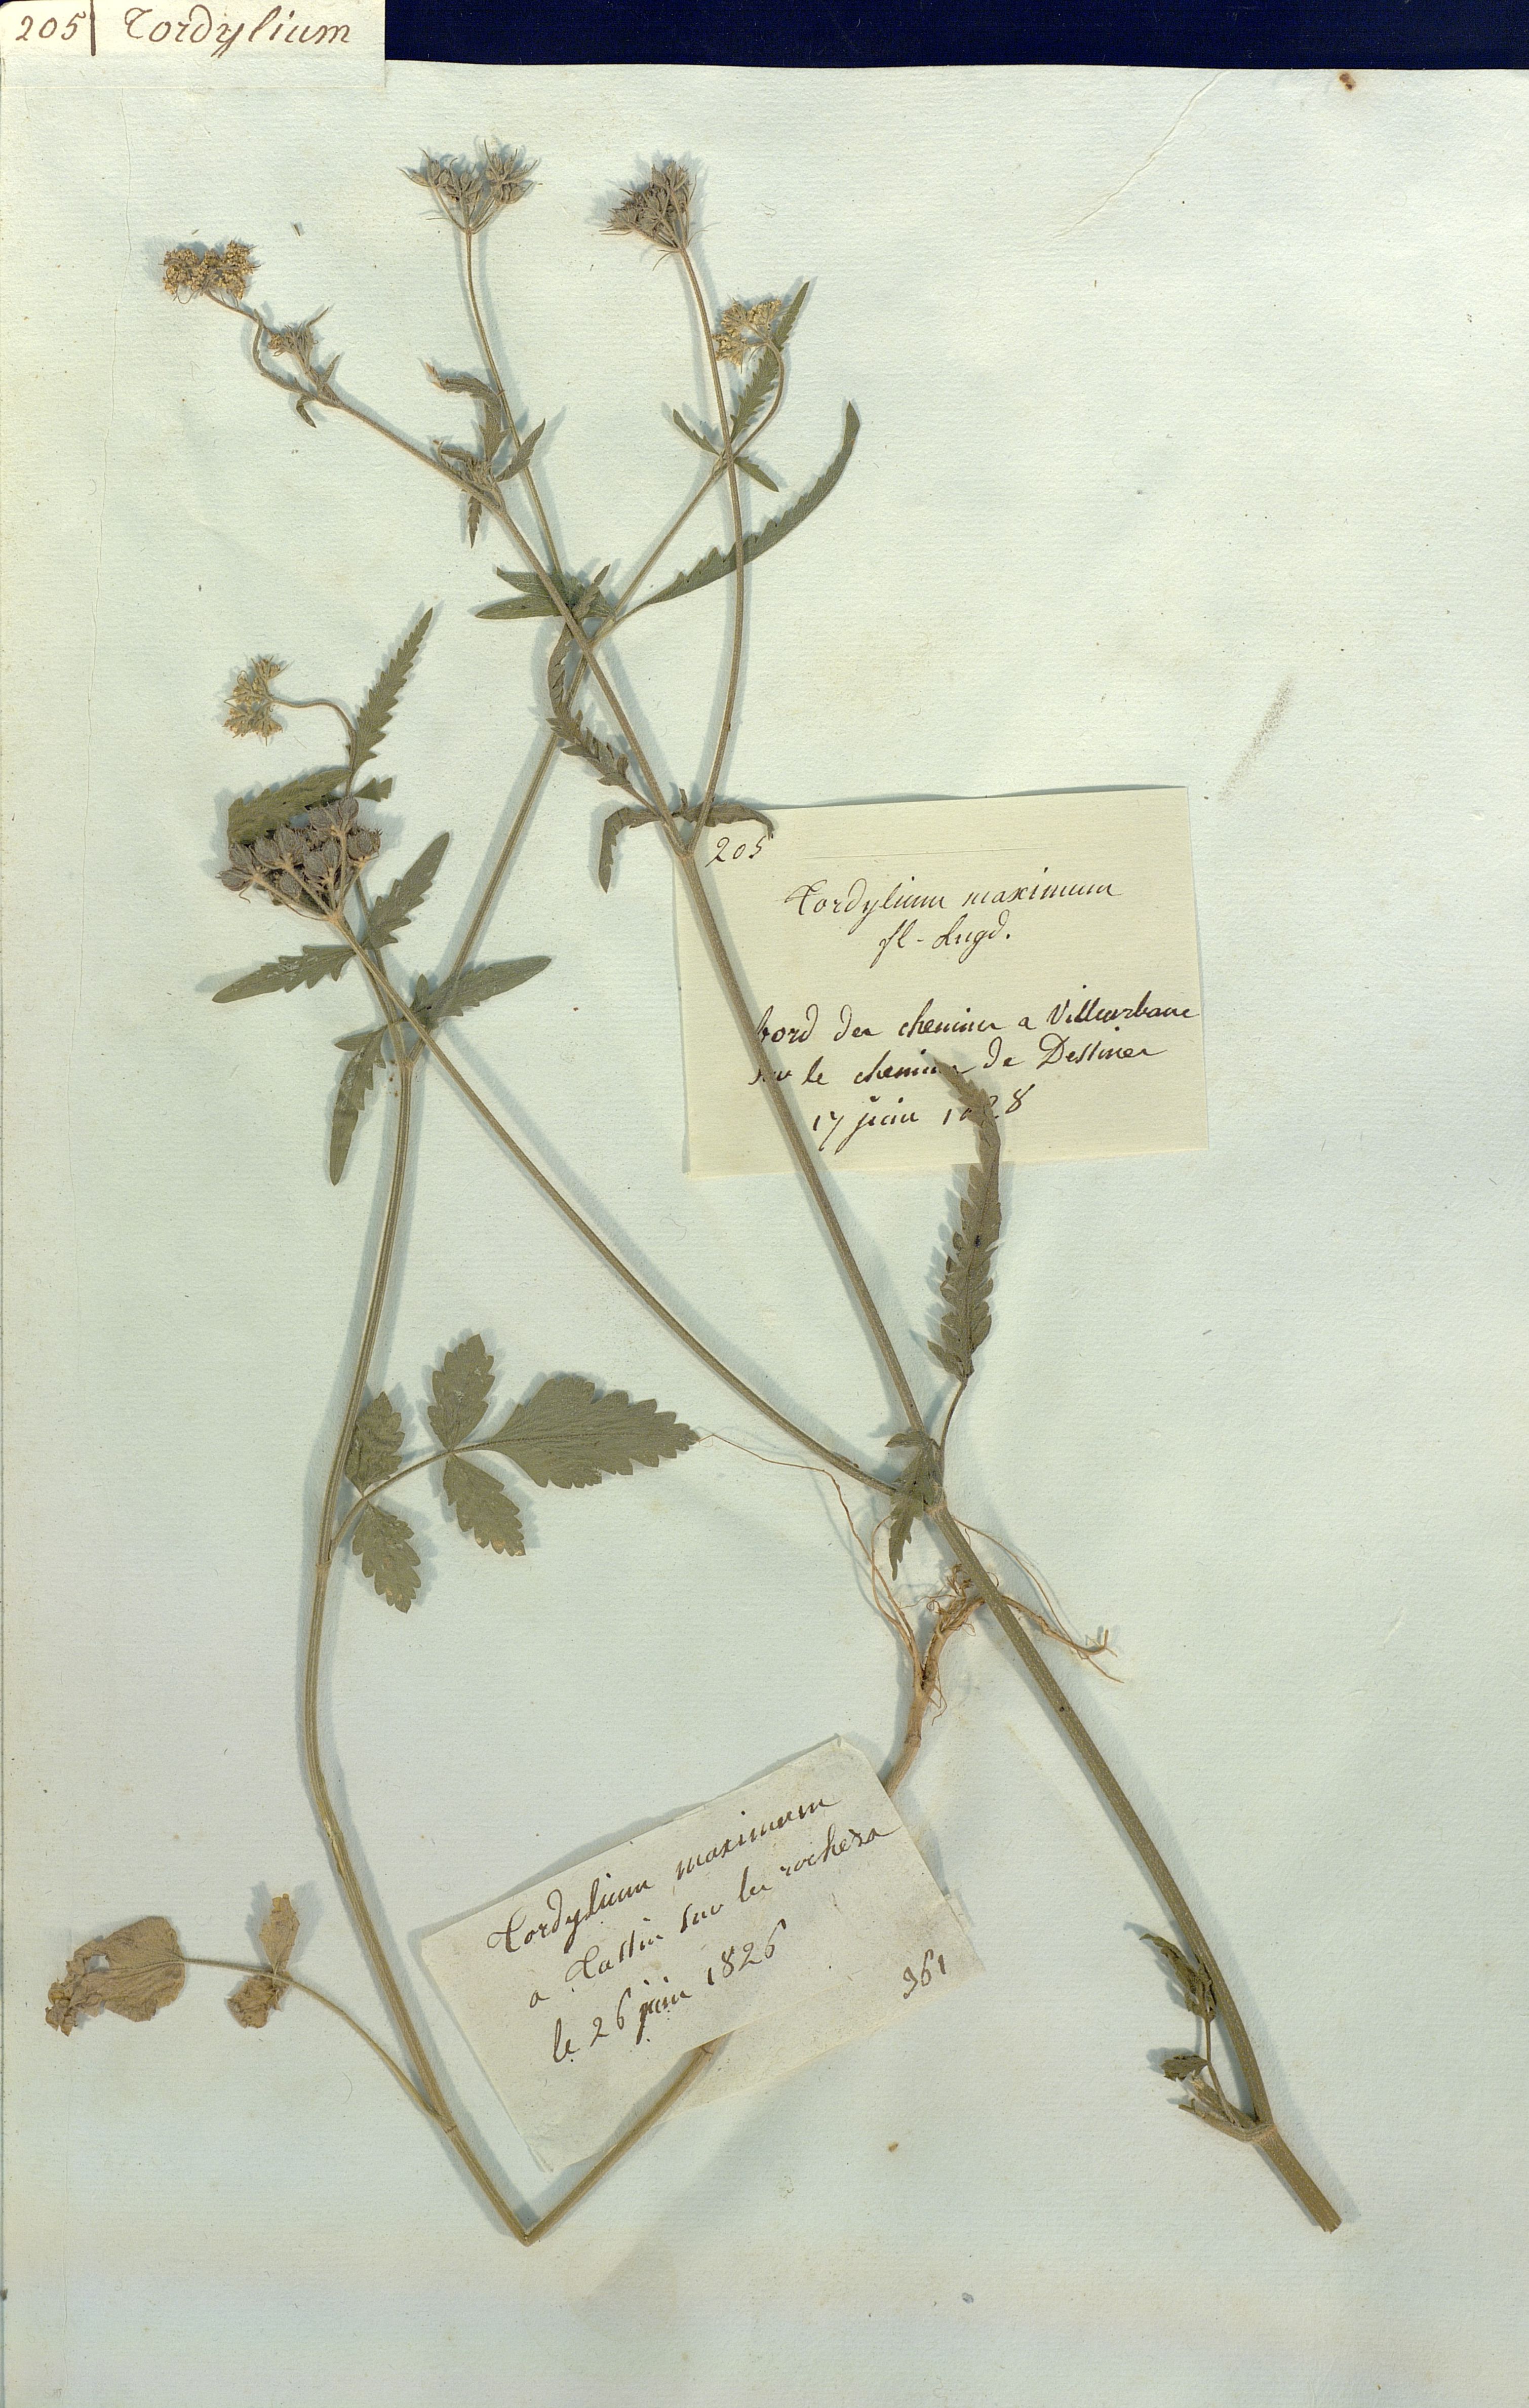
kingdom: Plantae
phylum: Tracheophyta
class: Magnoliopsida
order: Apiales
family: Apiaceae
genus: Tordylium
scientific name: Tordylium maximum
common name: Hartwort
